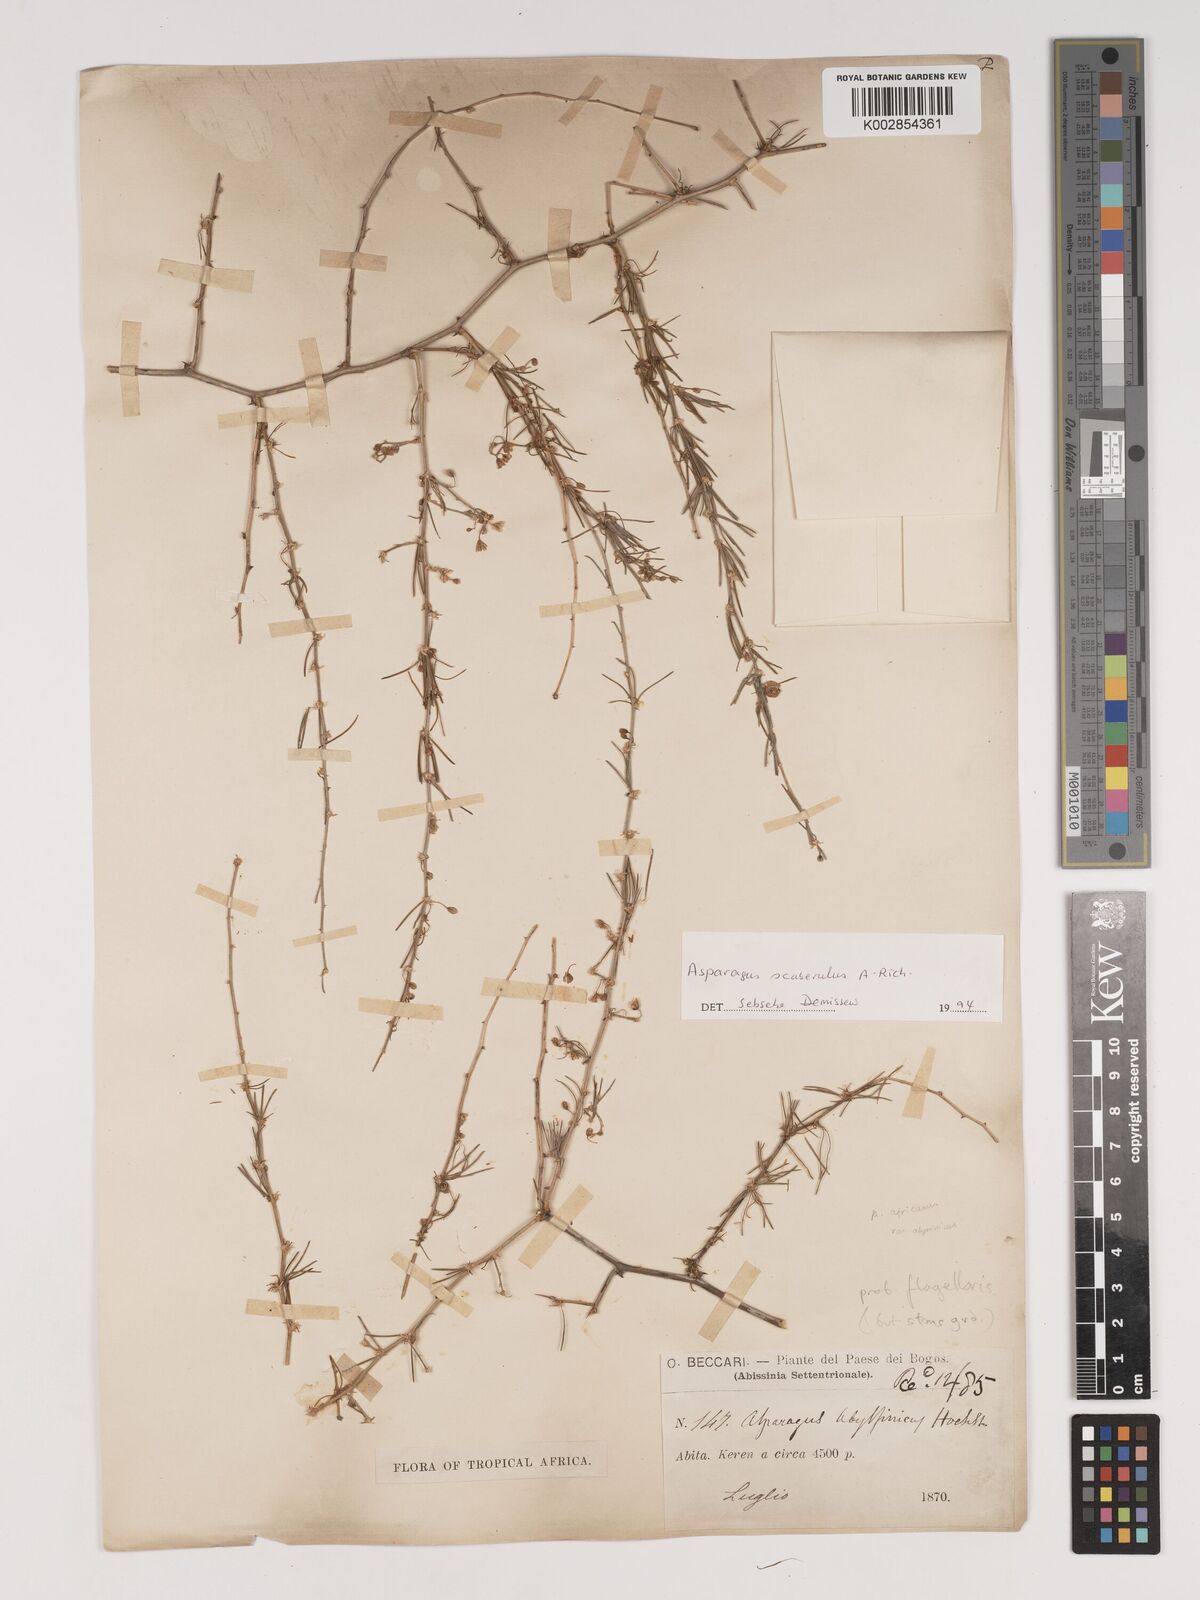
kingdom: Plantae
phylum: Tracheophyta
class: Liliopsida
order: Asparagales
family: Asparagaceae
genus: Asparagus
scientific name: Asparagus scaberulus
